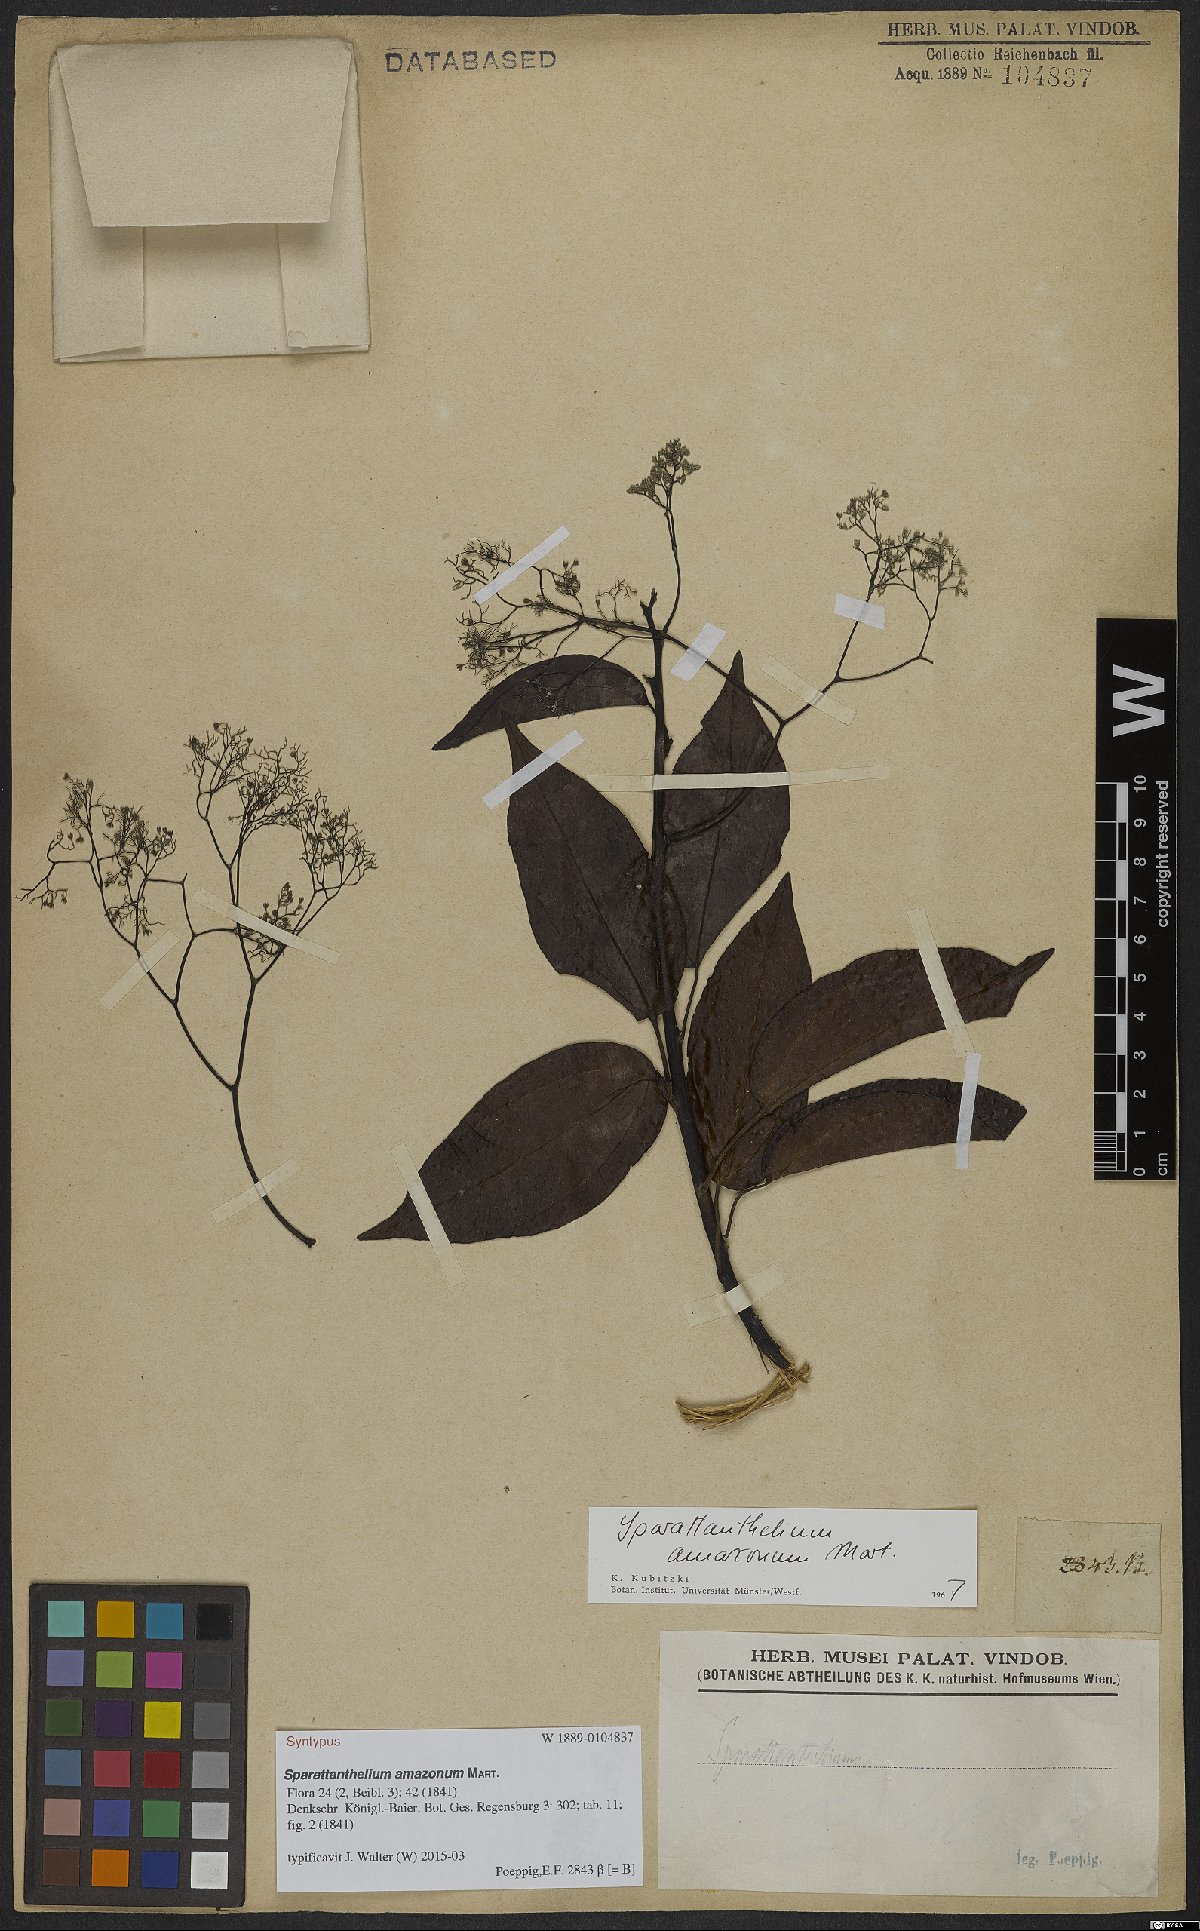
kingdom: Plantae
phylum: Tracheophyta
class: Magnoliopsida
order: Laurales
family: Hernandiaceae
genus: Sparattanthelium
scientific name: Sparattanthelium amazonum
